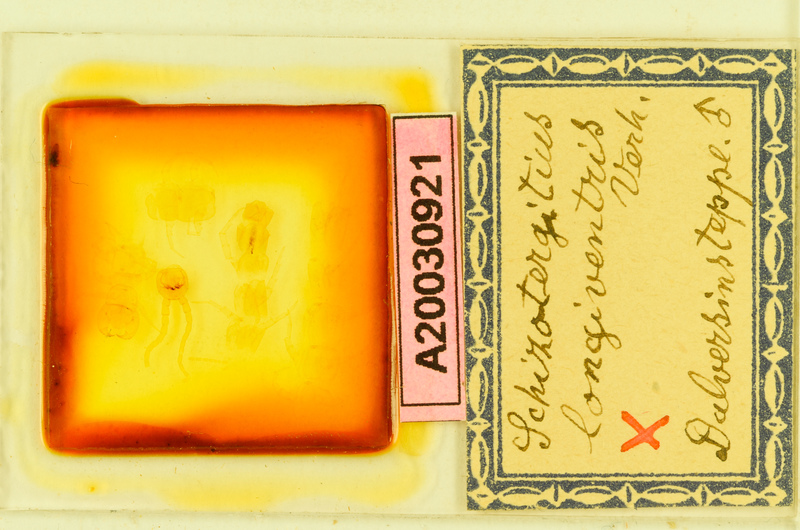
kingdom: Animalia
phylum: Arthropoda
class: Chilopoda
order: Lithobiomorpha
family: Lithobiidae
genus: Schizotergitius
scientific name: Schizotergitius longiventris
